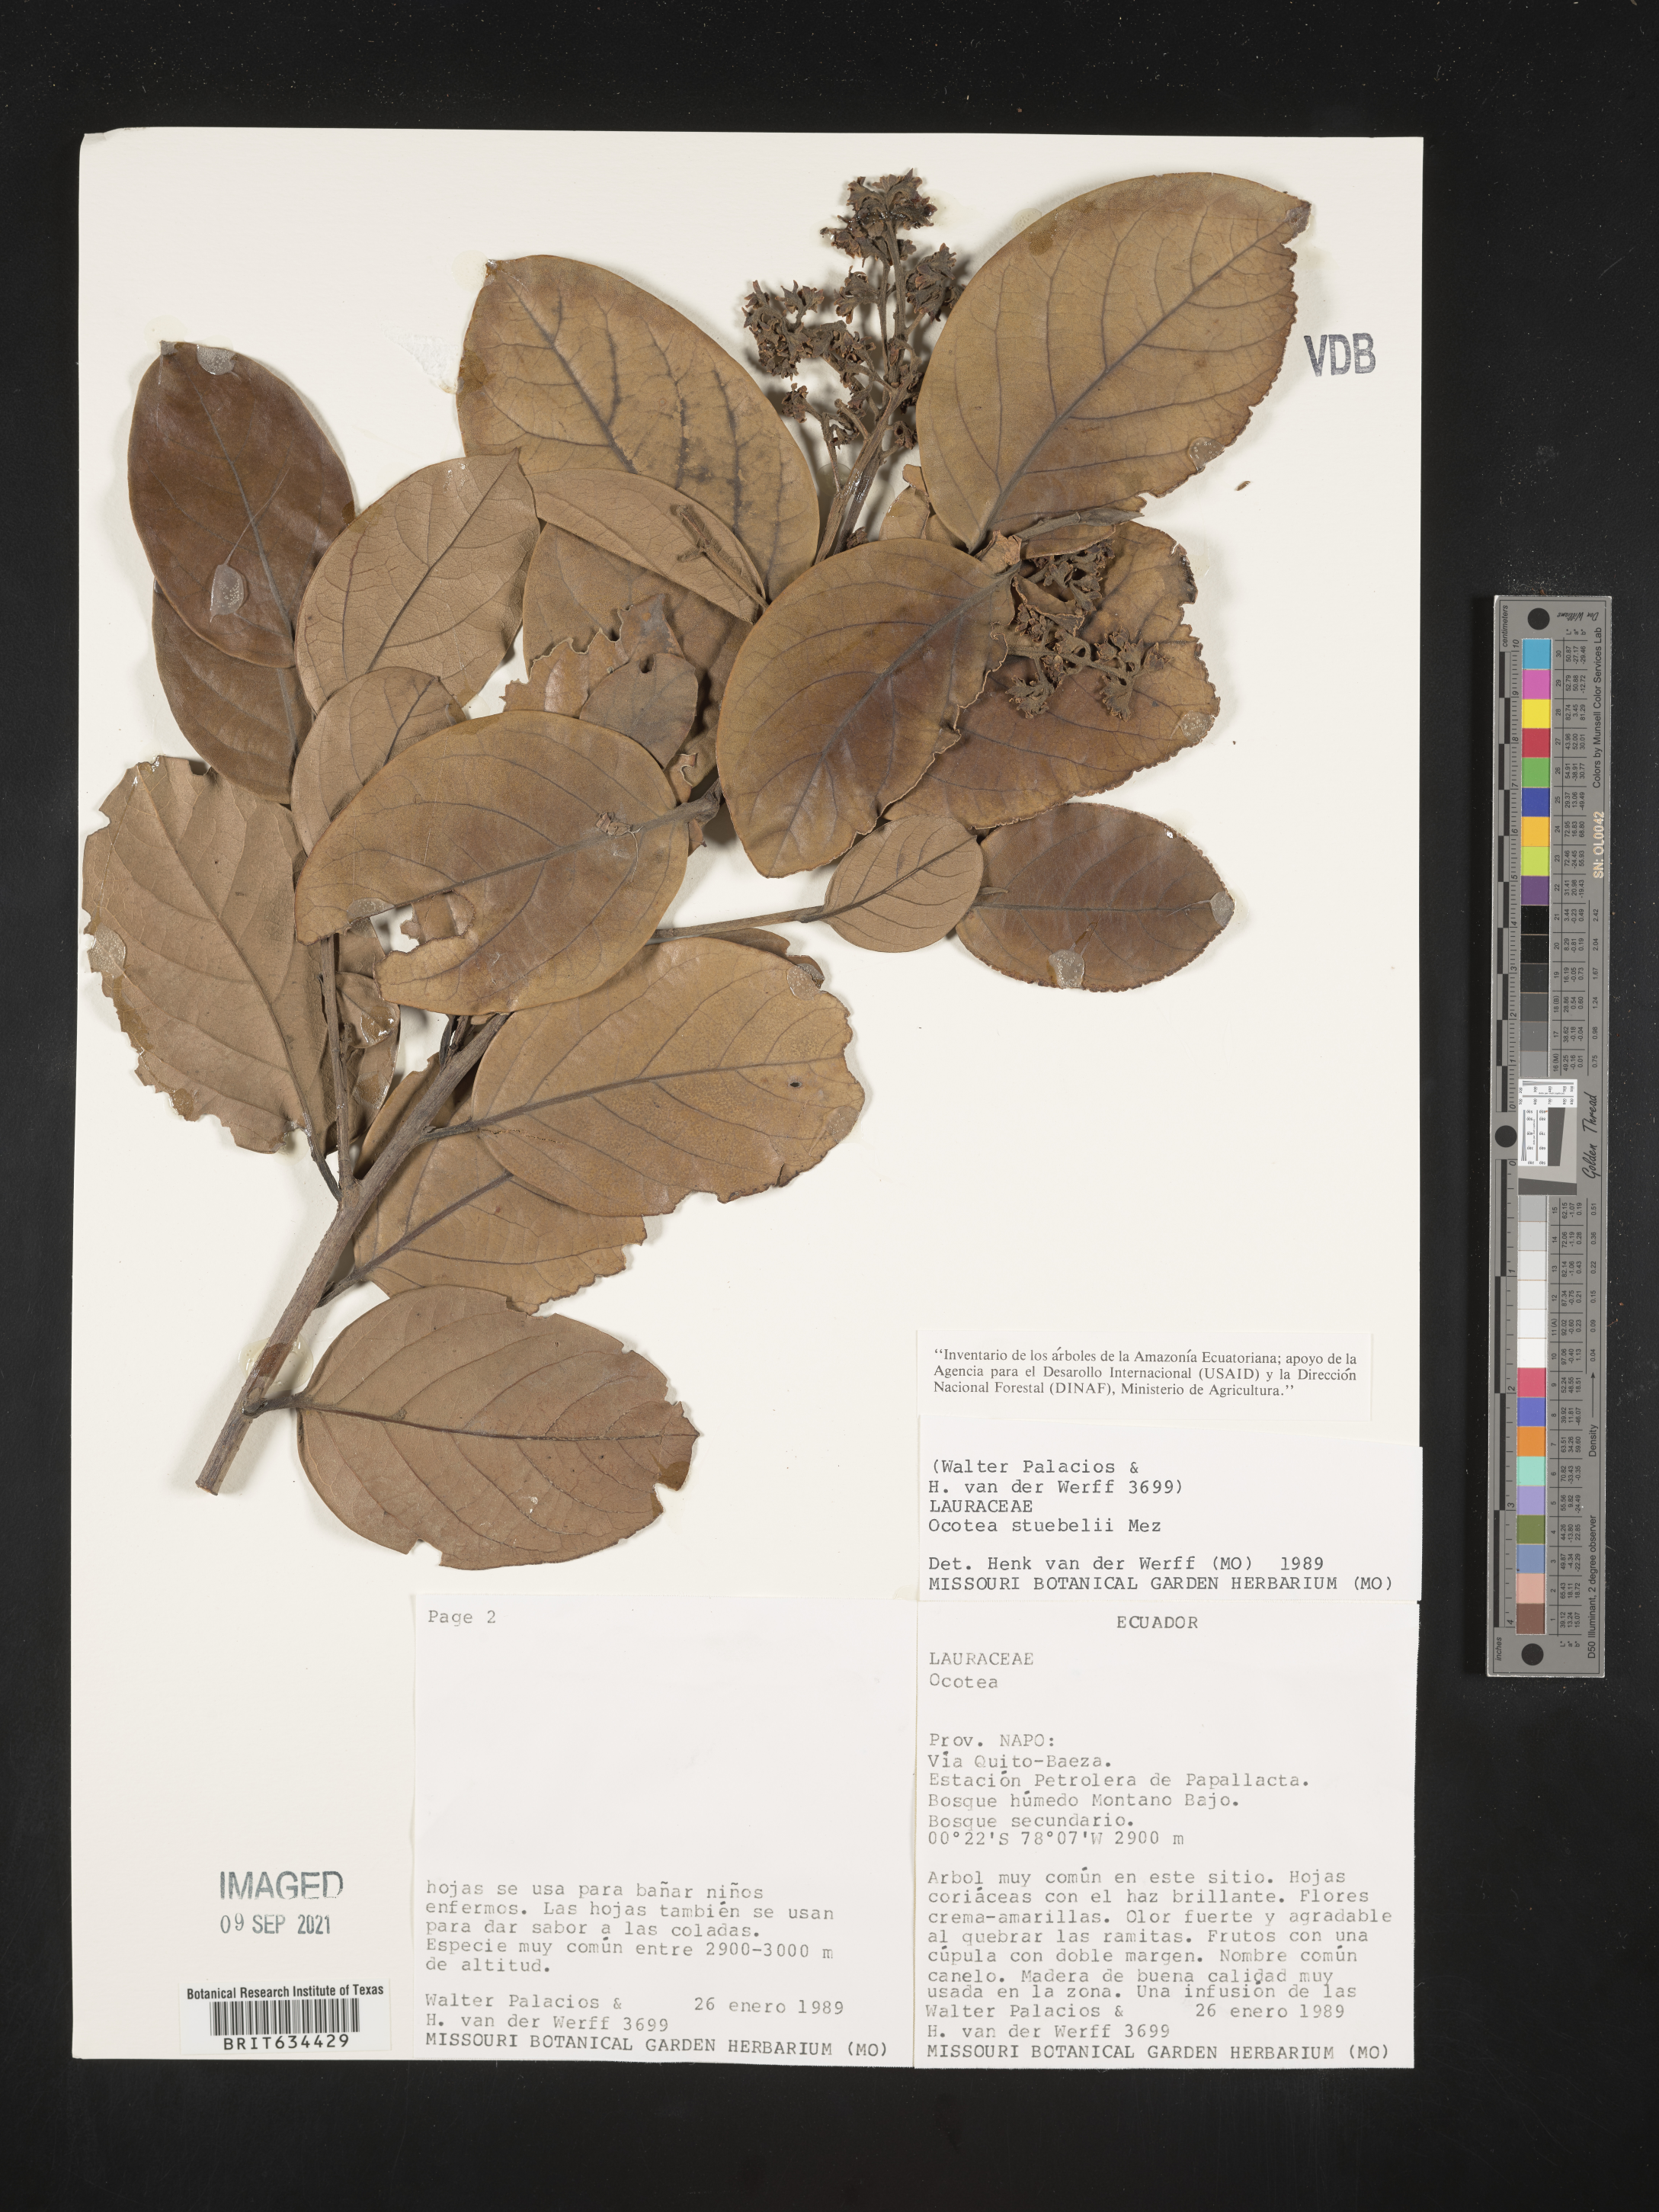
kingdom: Plantae
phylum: Tracheophyta
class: Magnoliopsida
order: Laurales
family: Lauraceae
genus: Ocotea
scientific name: Ocotea
